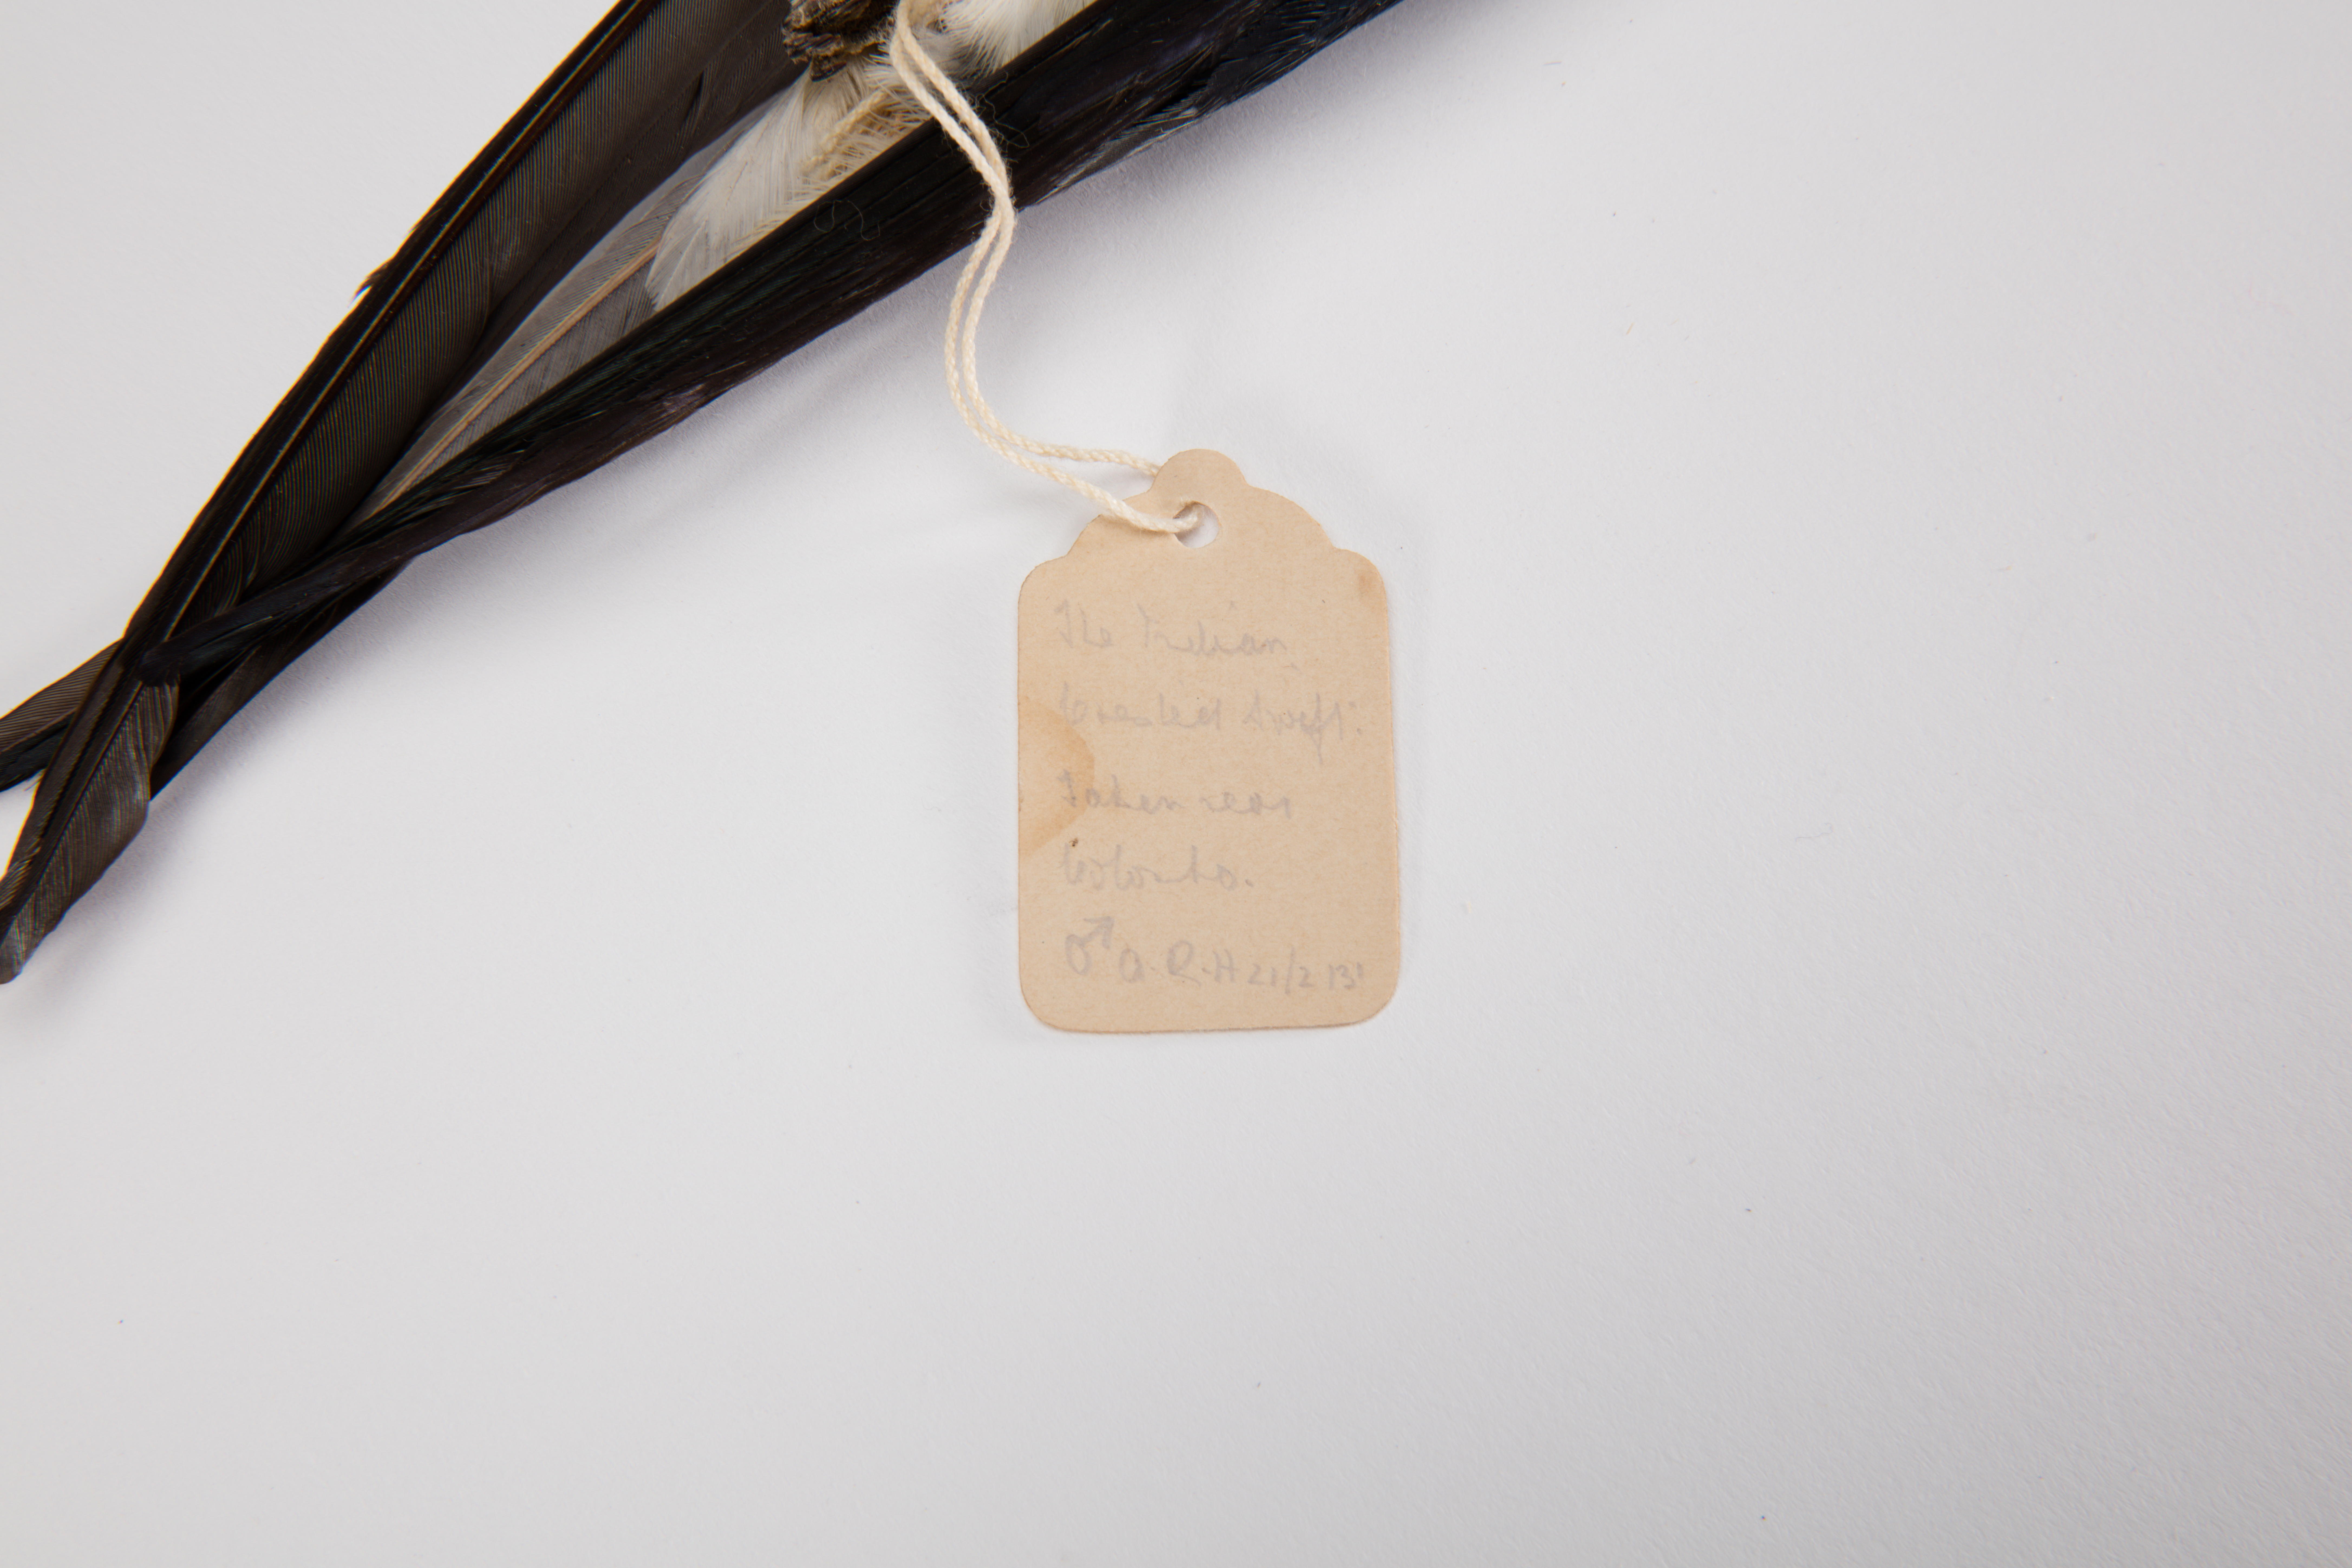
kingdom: Animalia
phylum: Chordata
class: Aves
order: Apodiformes
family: Hemiprocnidae
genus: Hemiprocne
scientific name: Hemiprocne longipennis
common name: Grey-rumped treeswift
